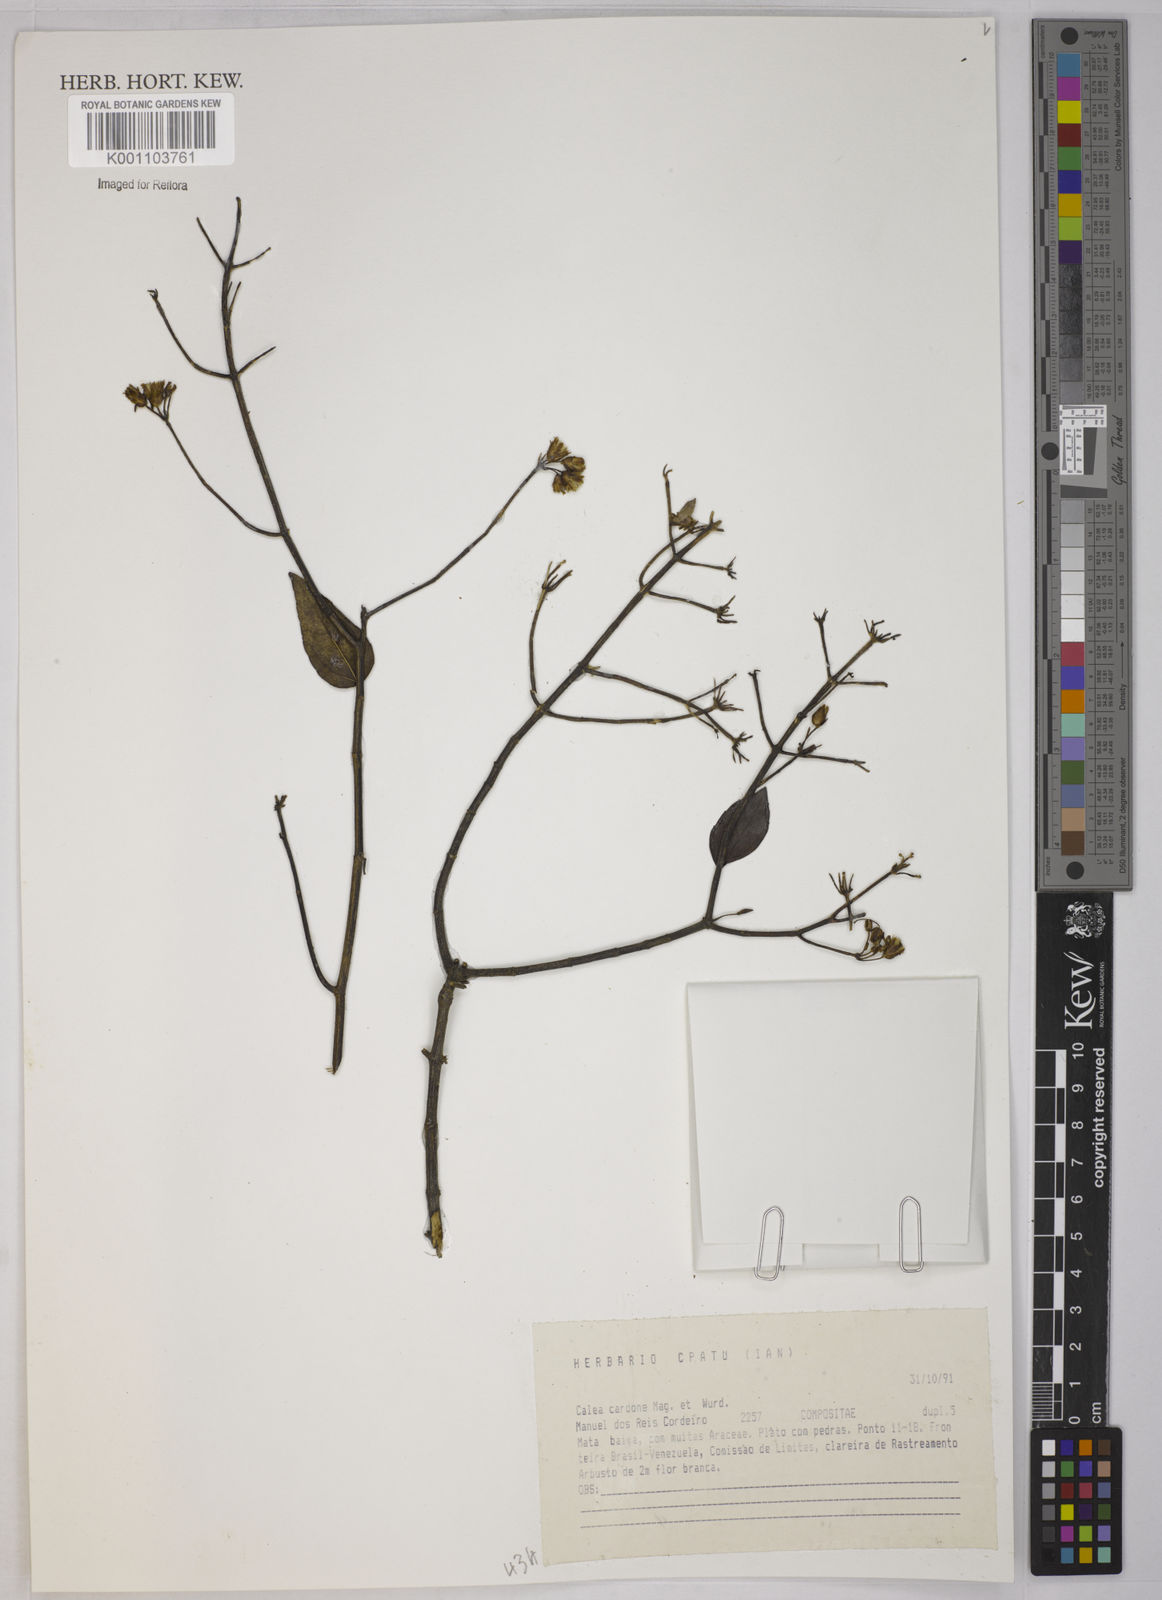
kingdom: Plantae
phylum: Tracheophyta
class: Magnoliopsida
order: Asterales
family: Asteraceae
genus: Calea
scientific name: Calea lucidivenia
